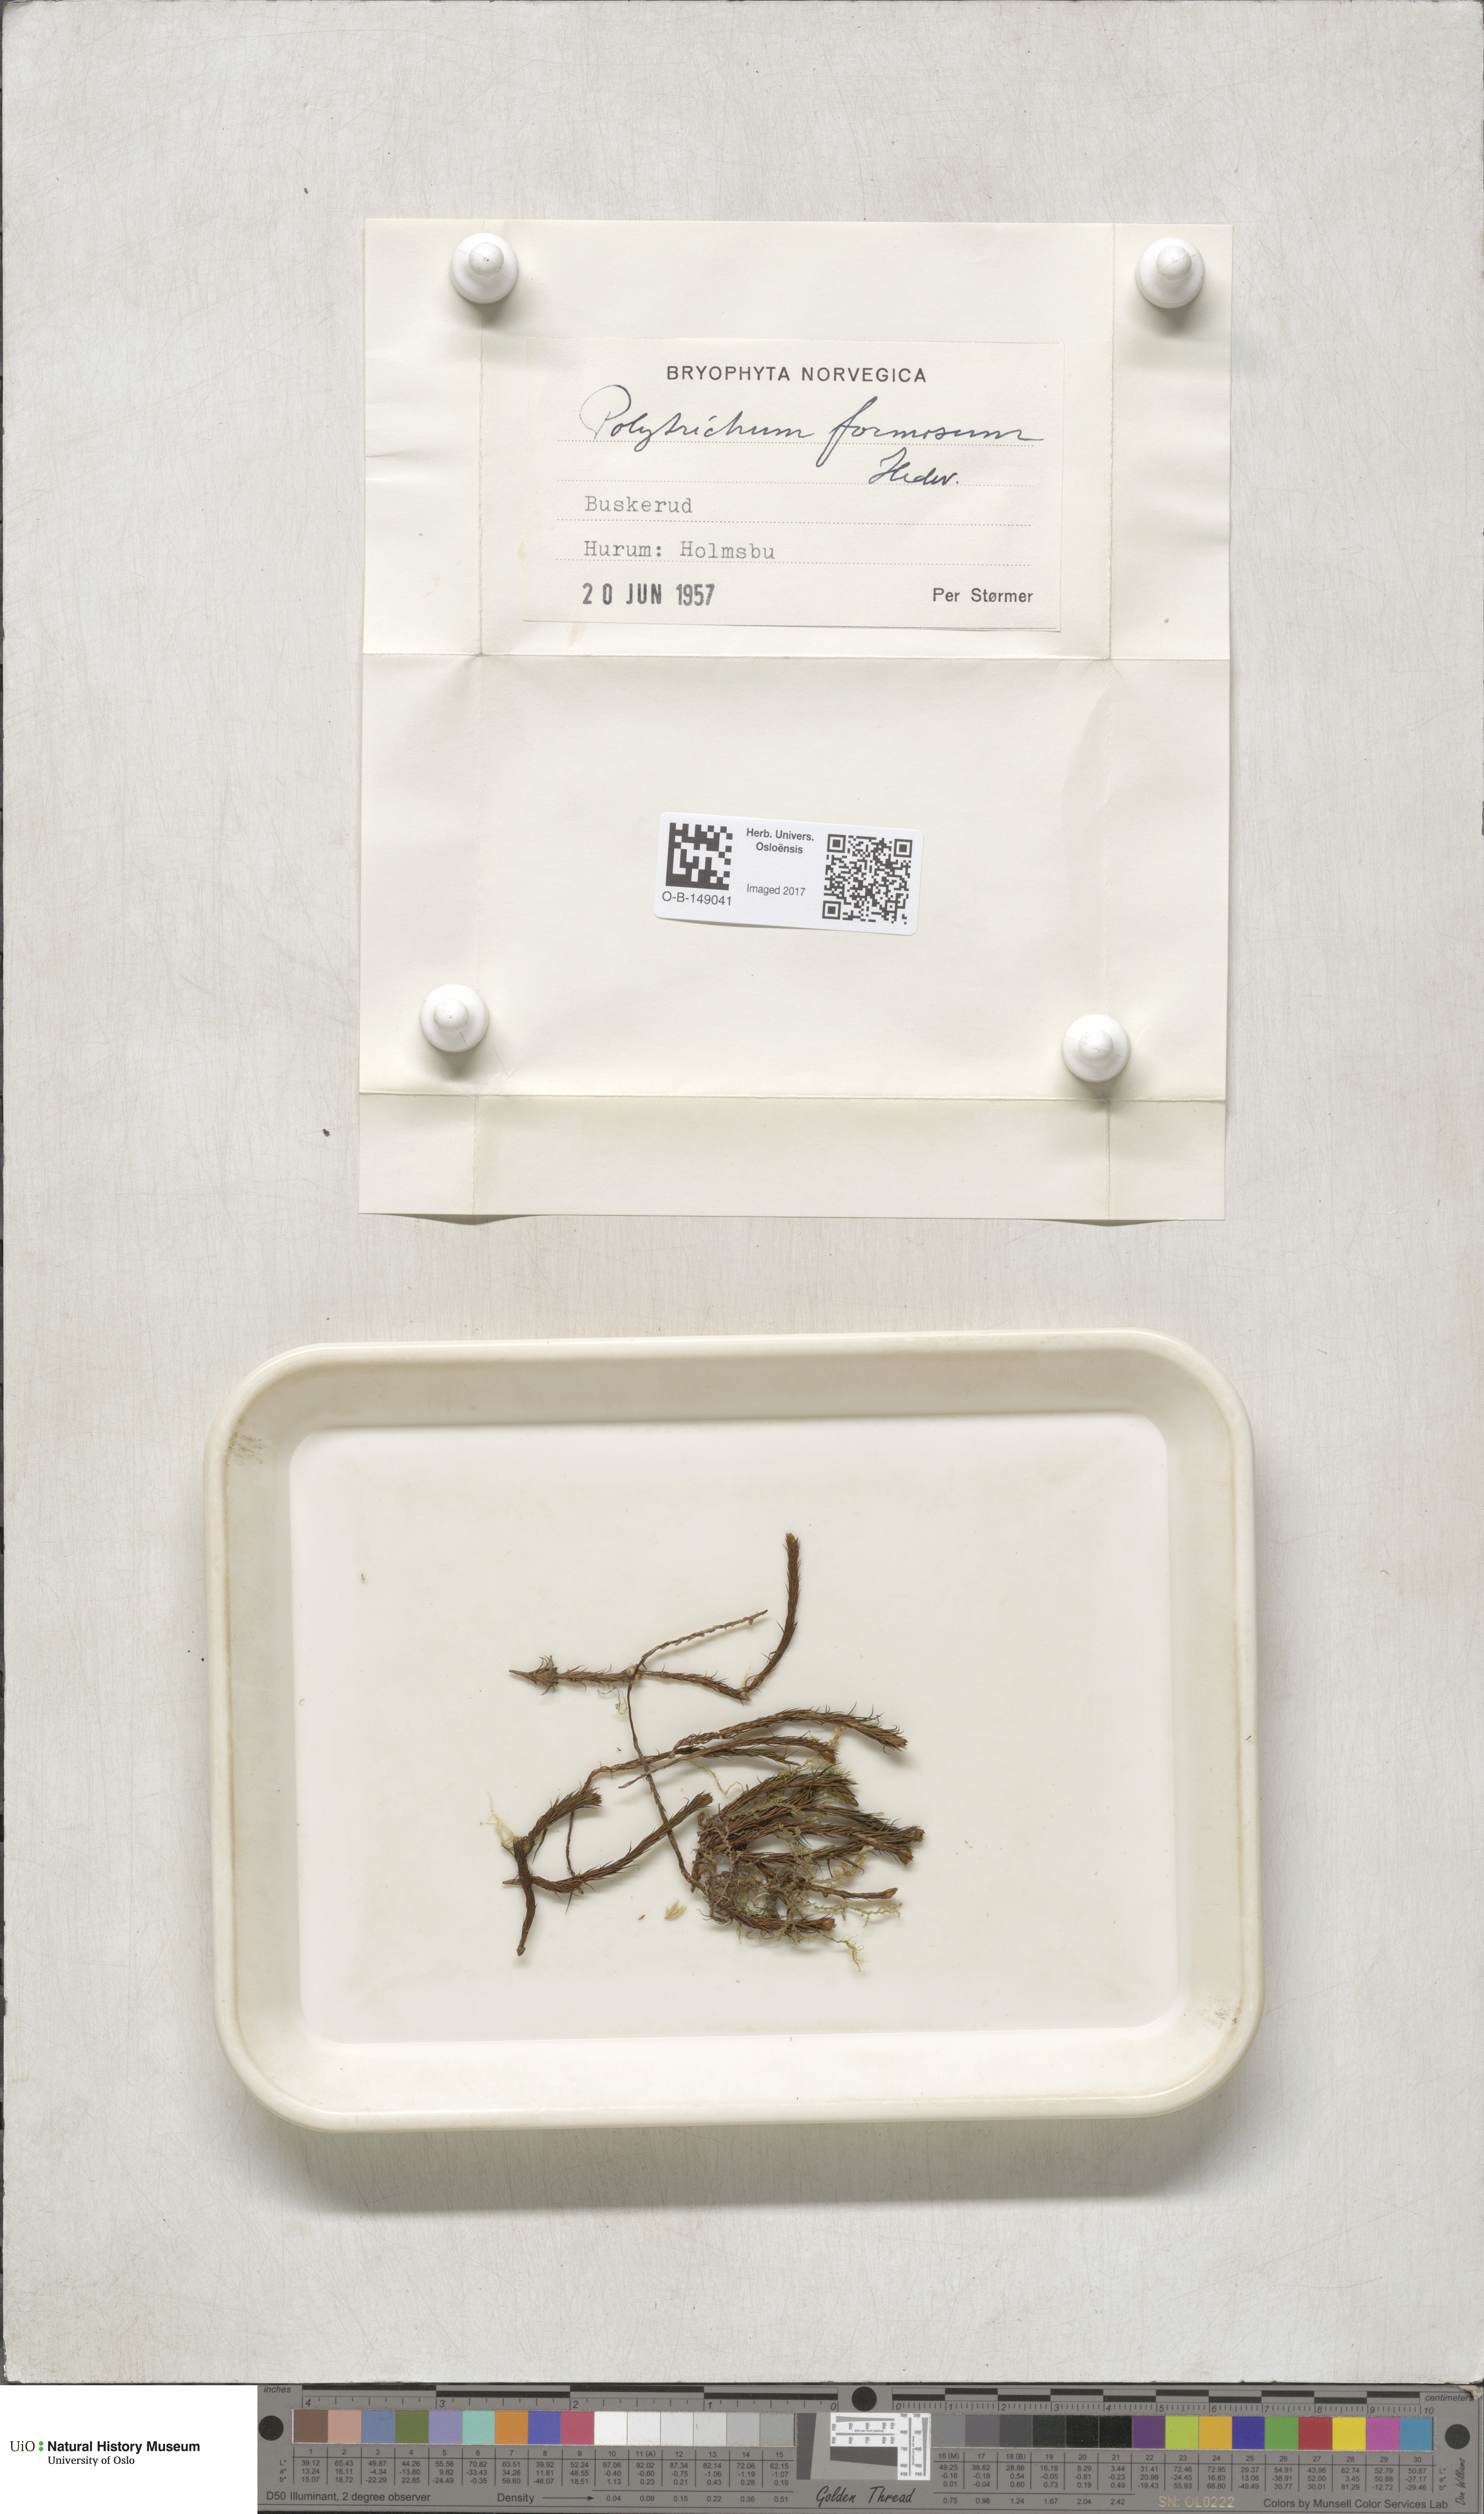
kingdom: Plantae
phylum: Bryophyta
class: Polytrichopsida
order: Polytrichales
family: Polytrichaceae
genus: Polytrichum
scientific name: Polytrichum formosum
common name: Bank haircap moss
